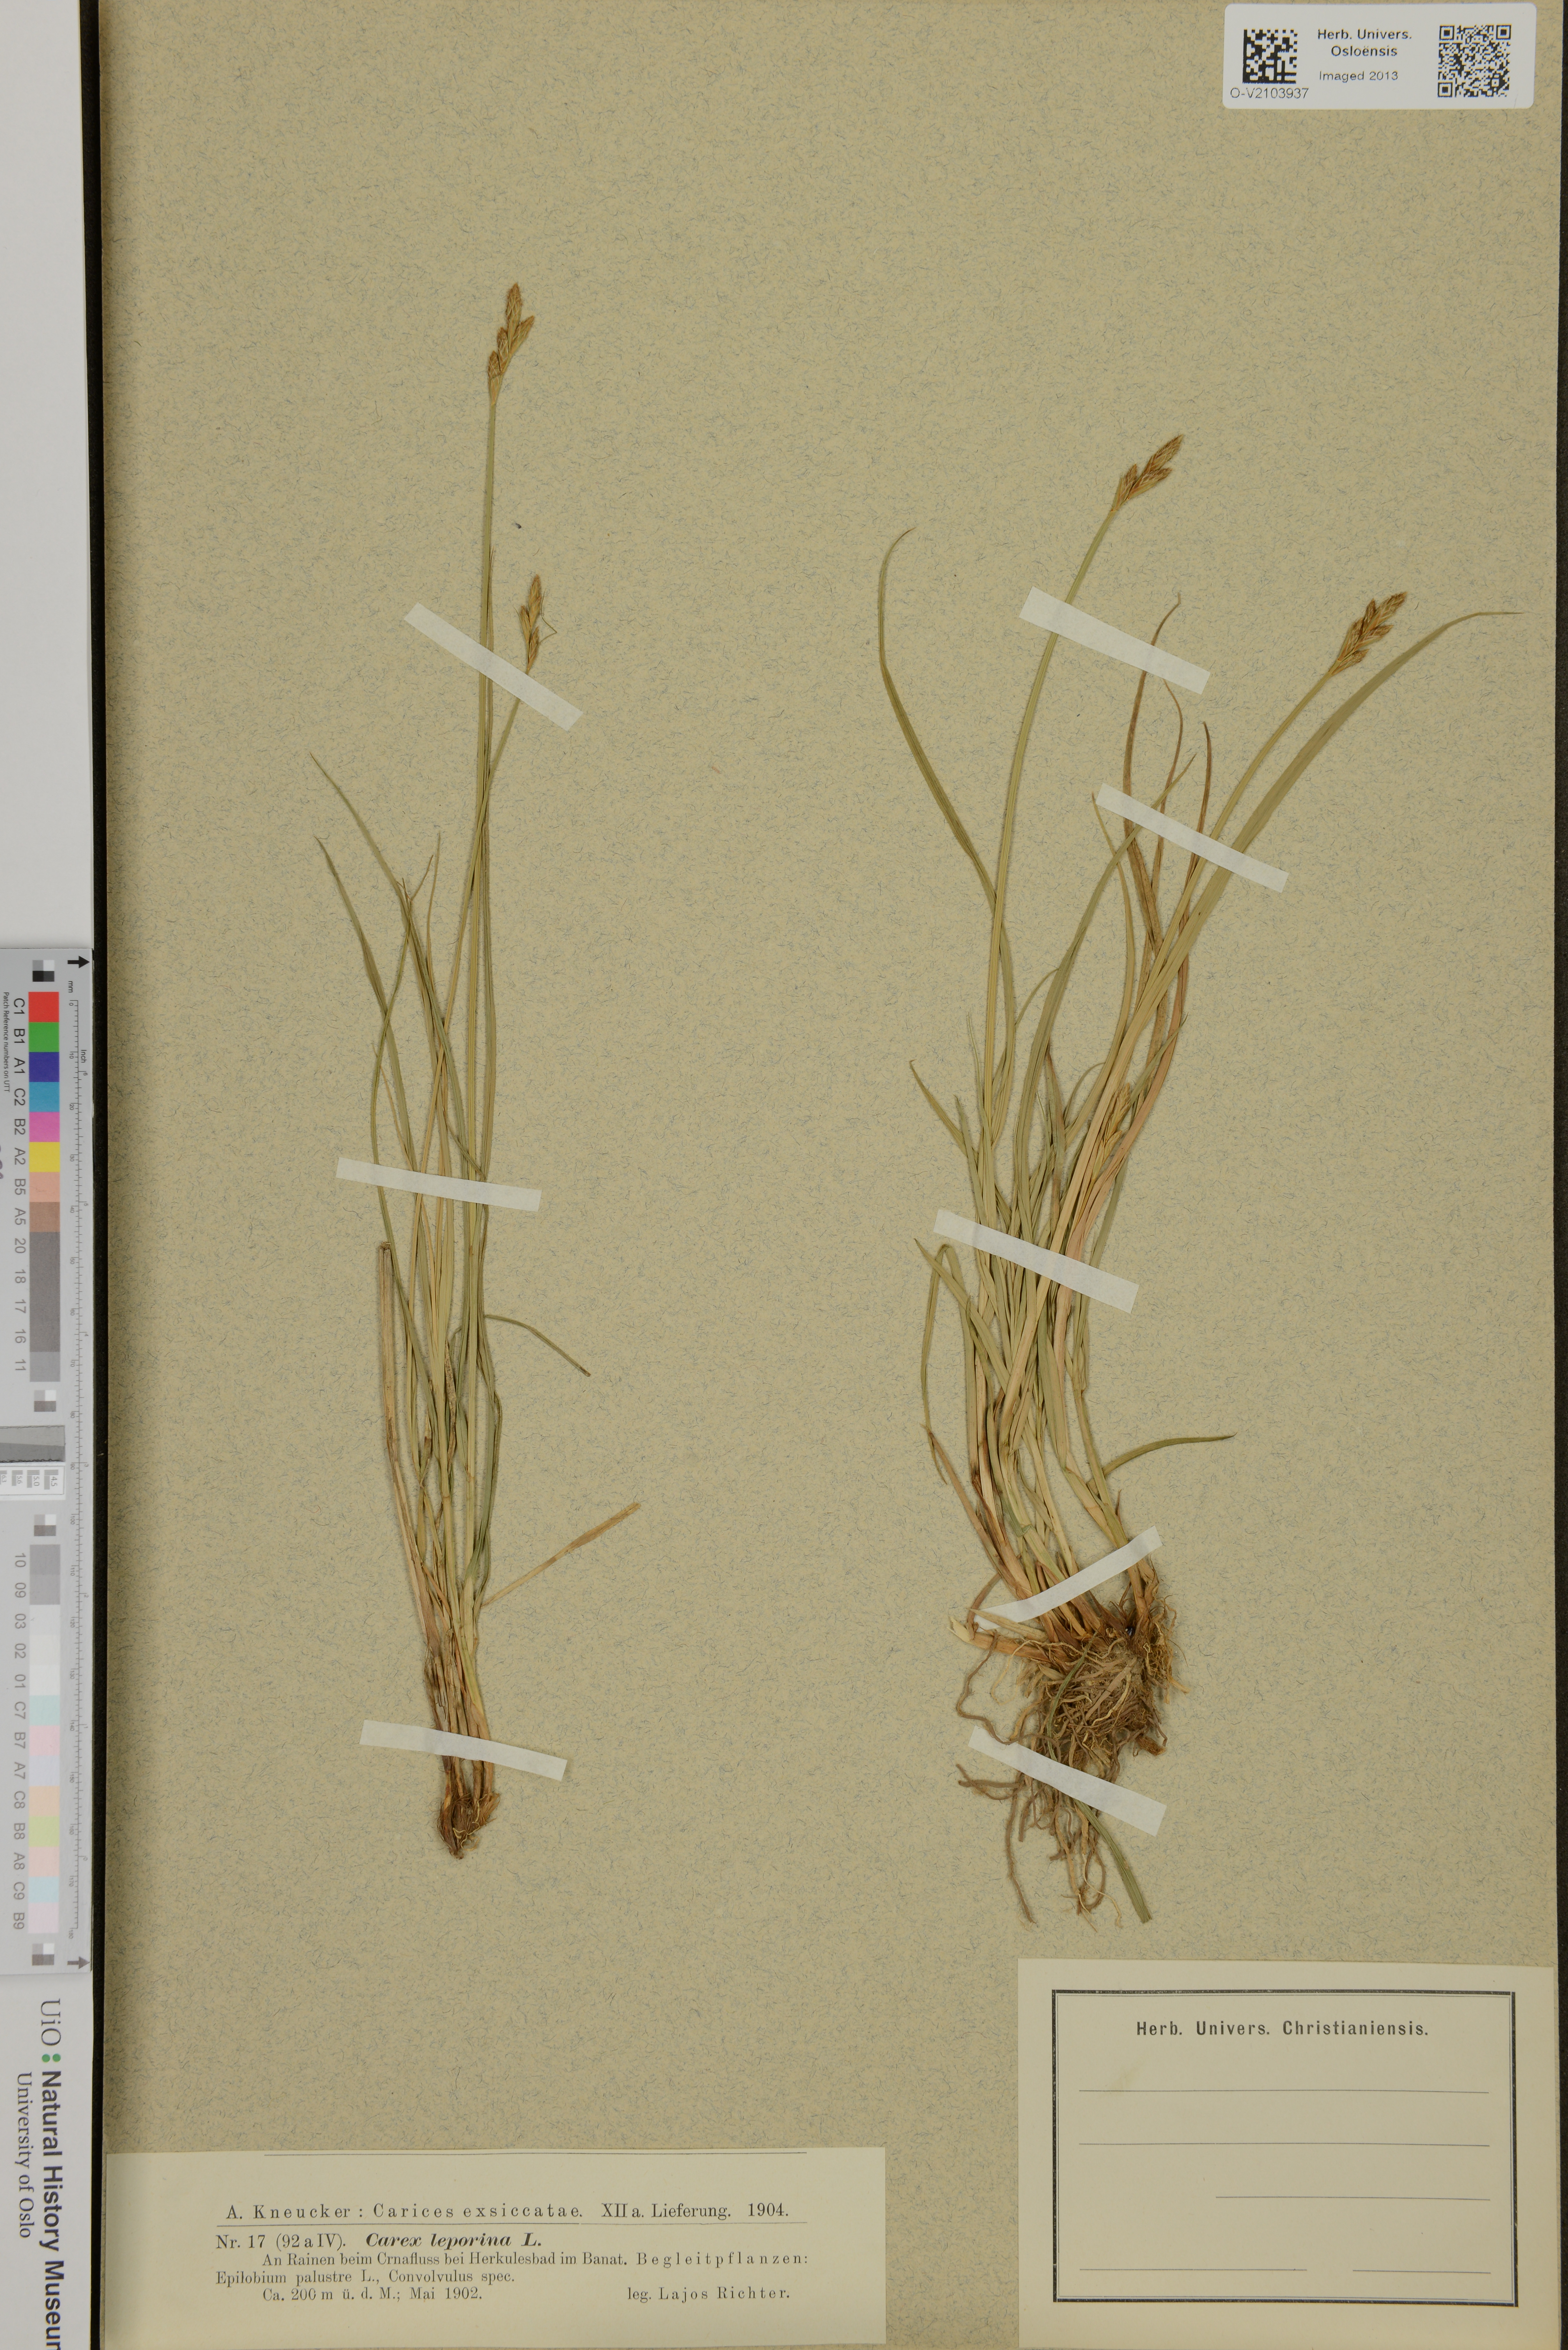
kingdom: Plantae
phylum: Tracheophyta
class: Liliopsida
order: Poales
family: Cyperaceae
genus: Carex
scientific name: Carex leporina
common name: Oval sedge
